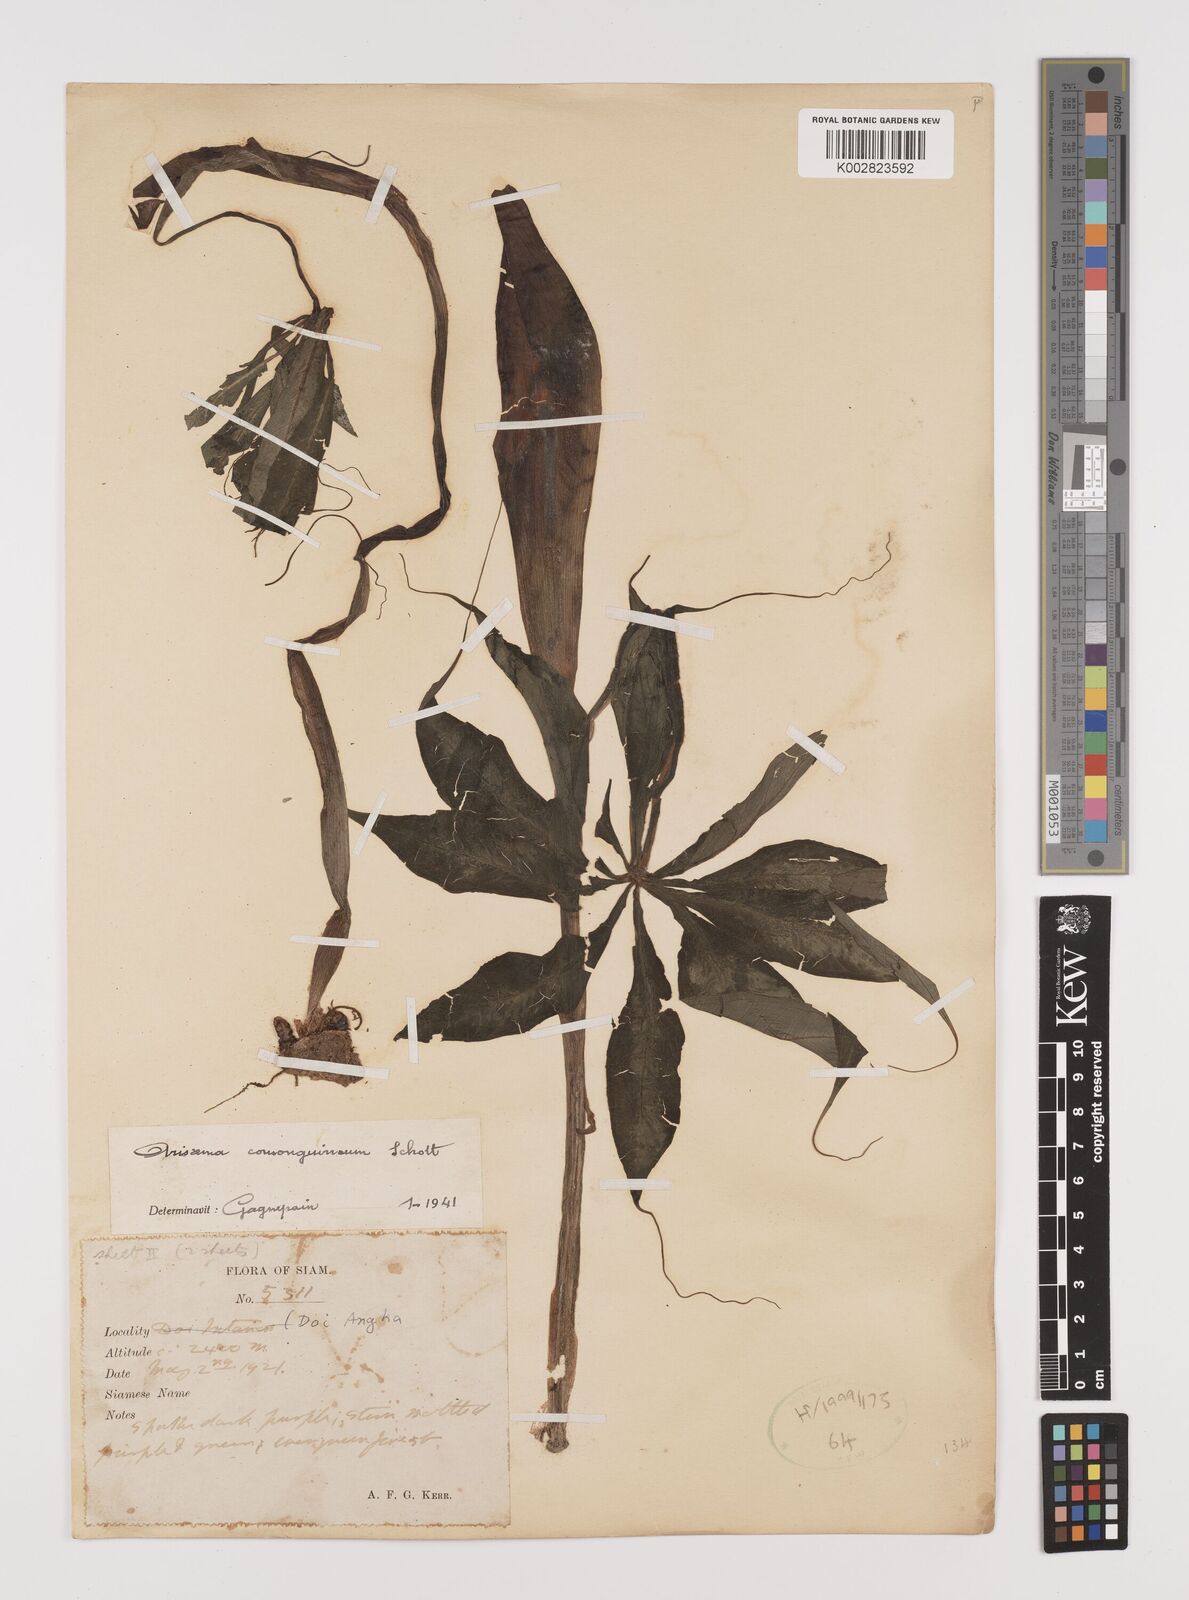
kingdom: Plantae
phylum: Tracheophyta
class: Liliopsida
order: Alismatales
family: Araceae
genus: Arisaema
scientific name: Arisaema consanguineum
